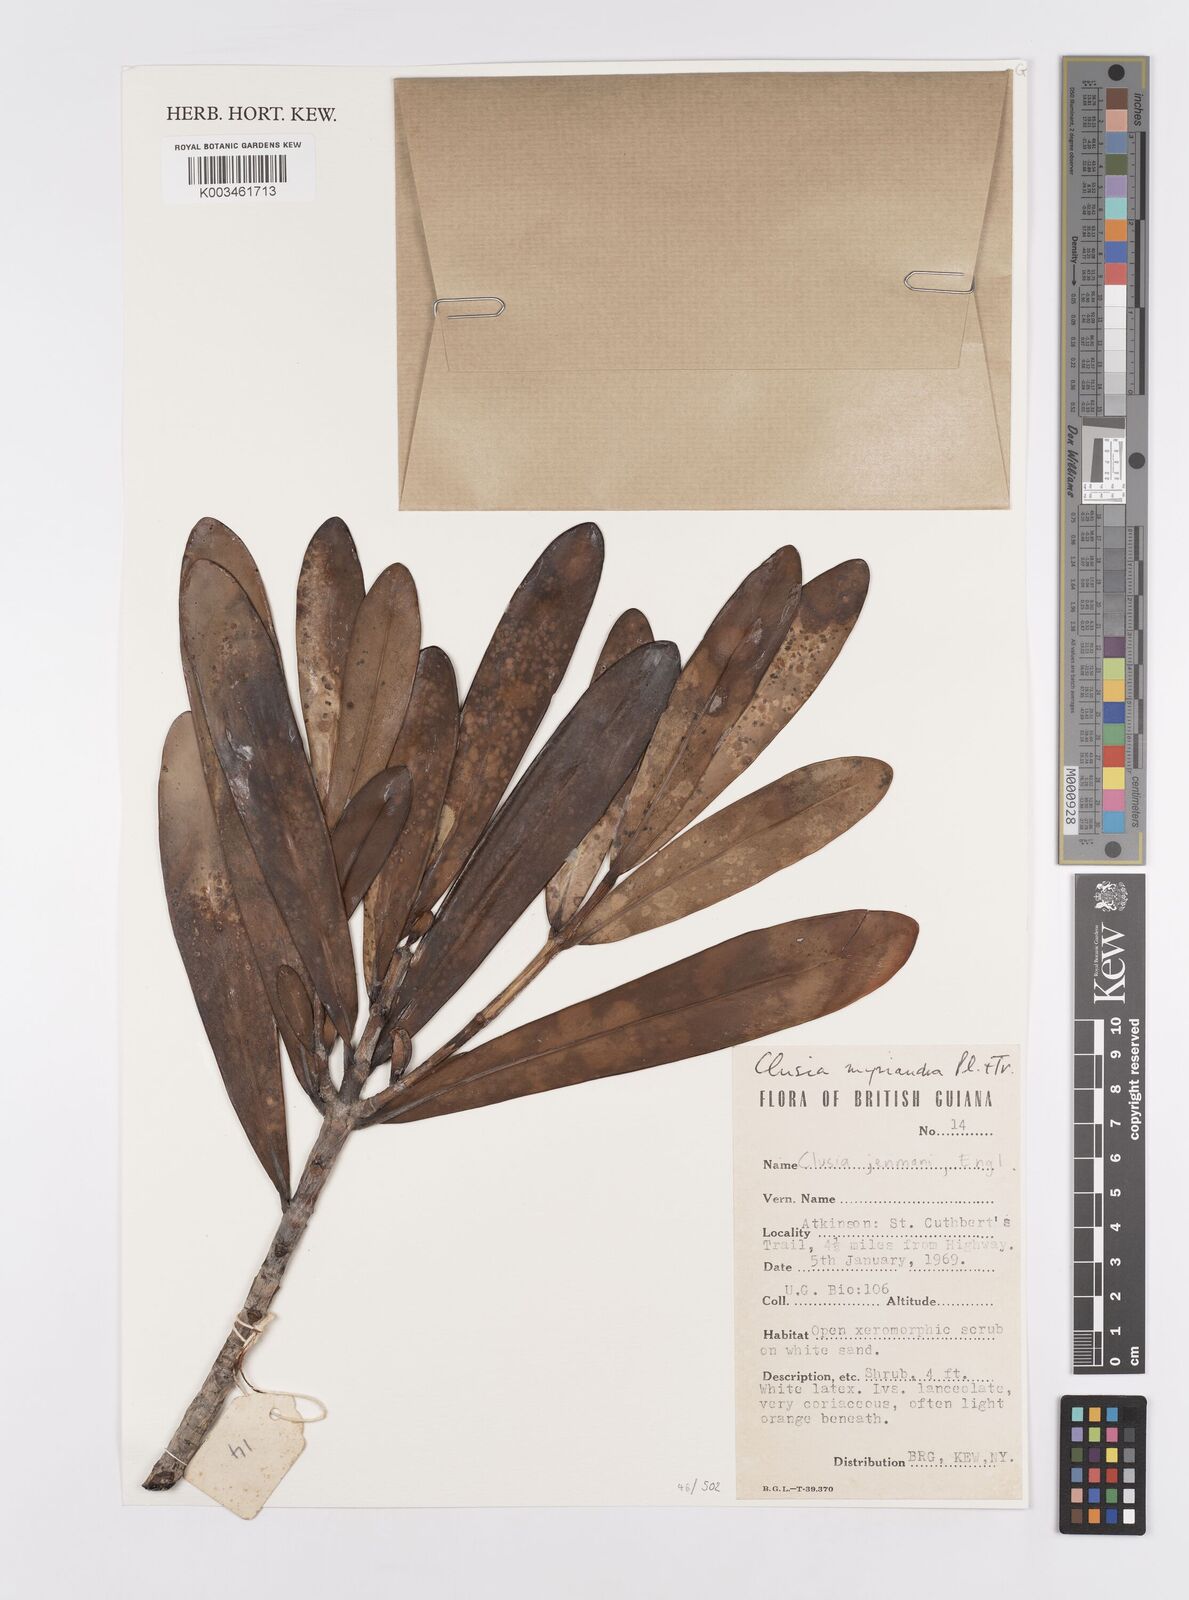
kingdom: Plantae
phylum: Tracheophyta
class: Magnoliopsida
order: Malpighiales
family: Clusiaceae
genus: Clusia
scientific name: Clusia myriandra
